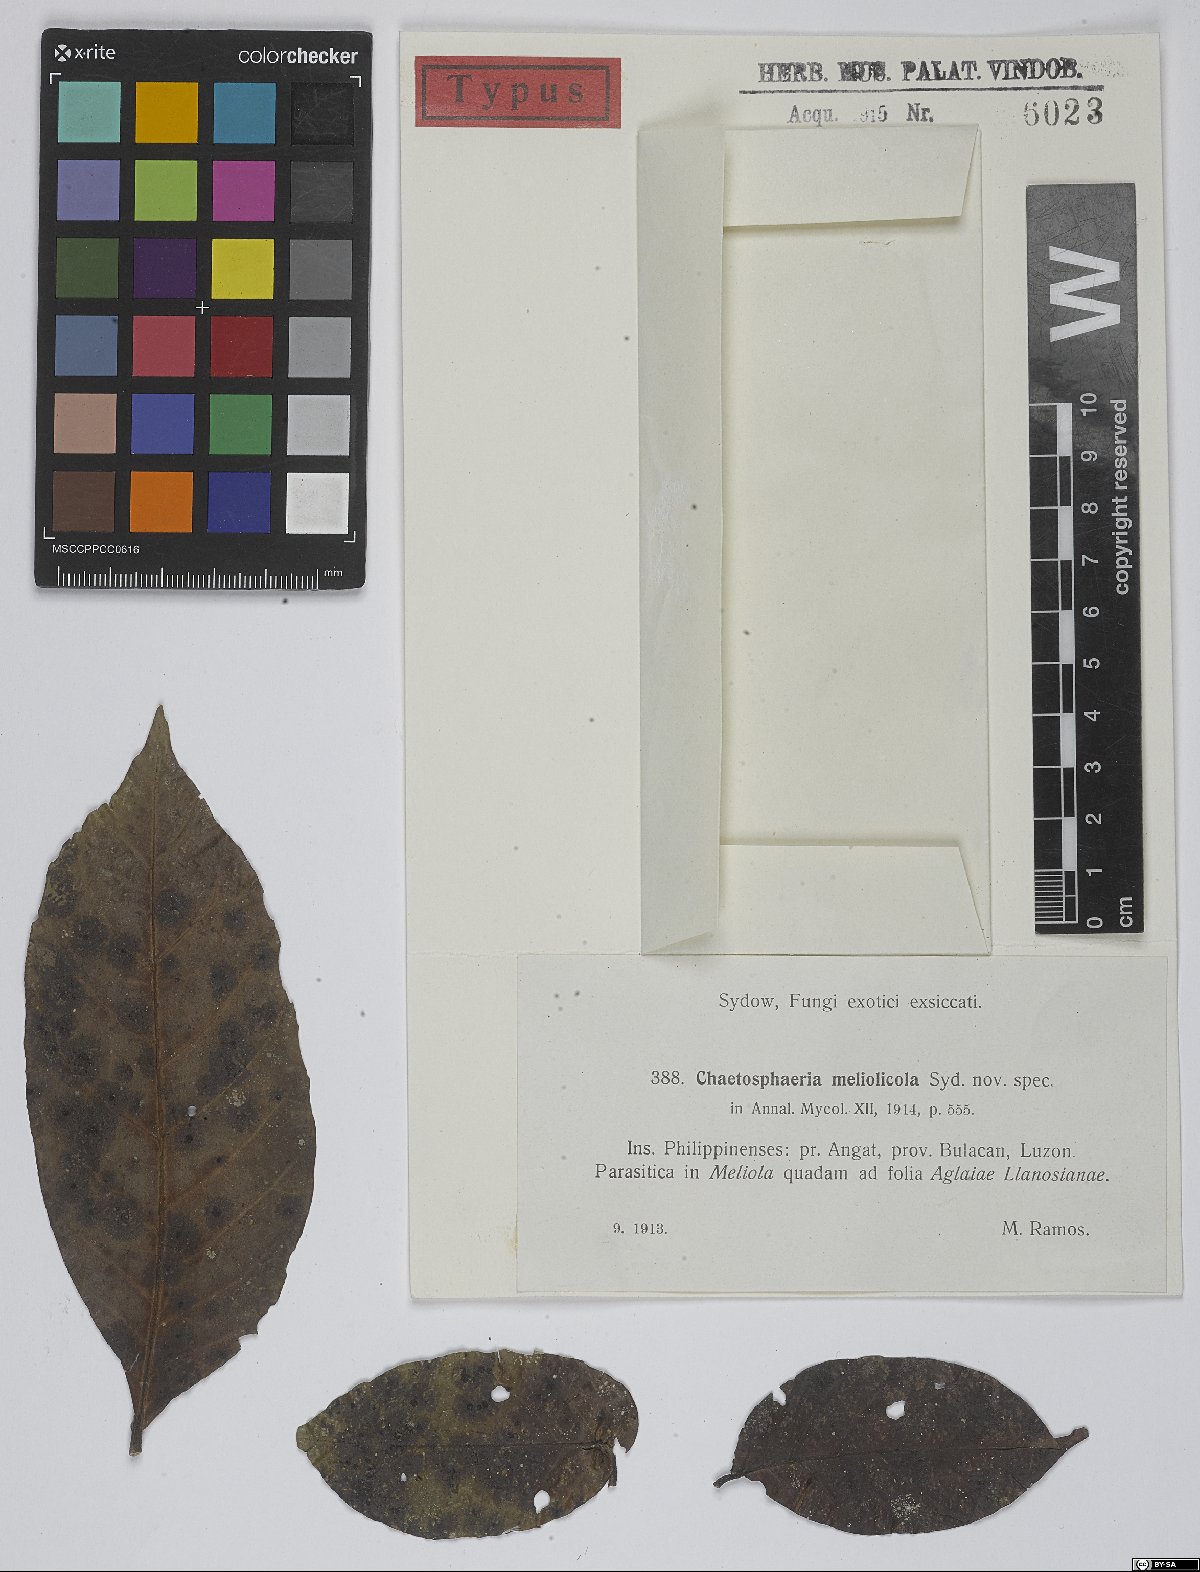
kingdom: Fungi
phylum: Ascomycota
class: Sordariomycetes
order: Chaetosphaeriales
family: Chaetosphaeriaceae
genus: Chaetosphaeria
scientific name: Chaetosphaeria meliolicola
